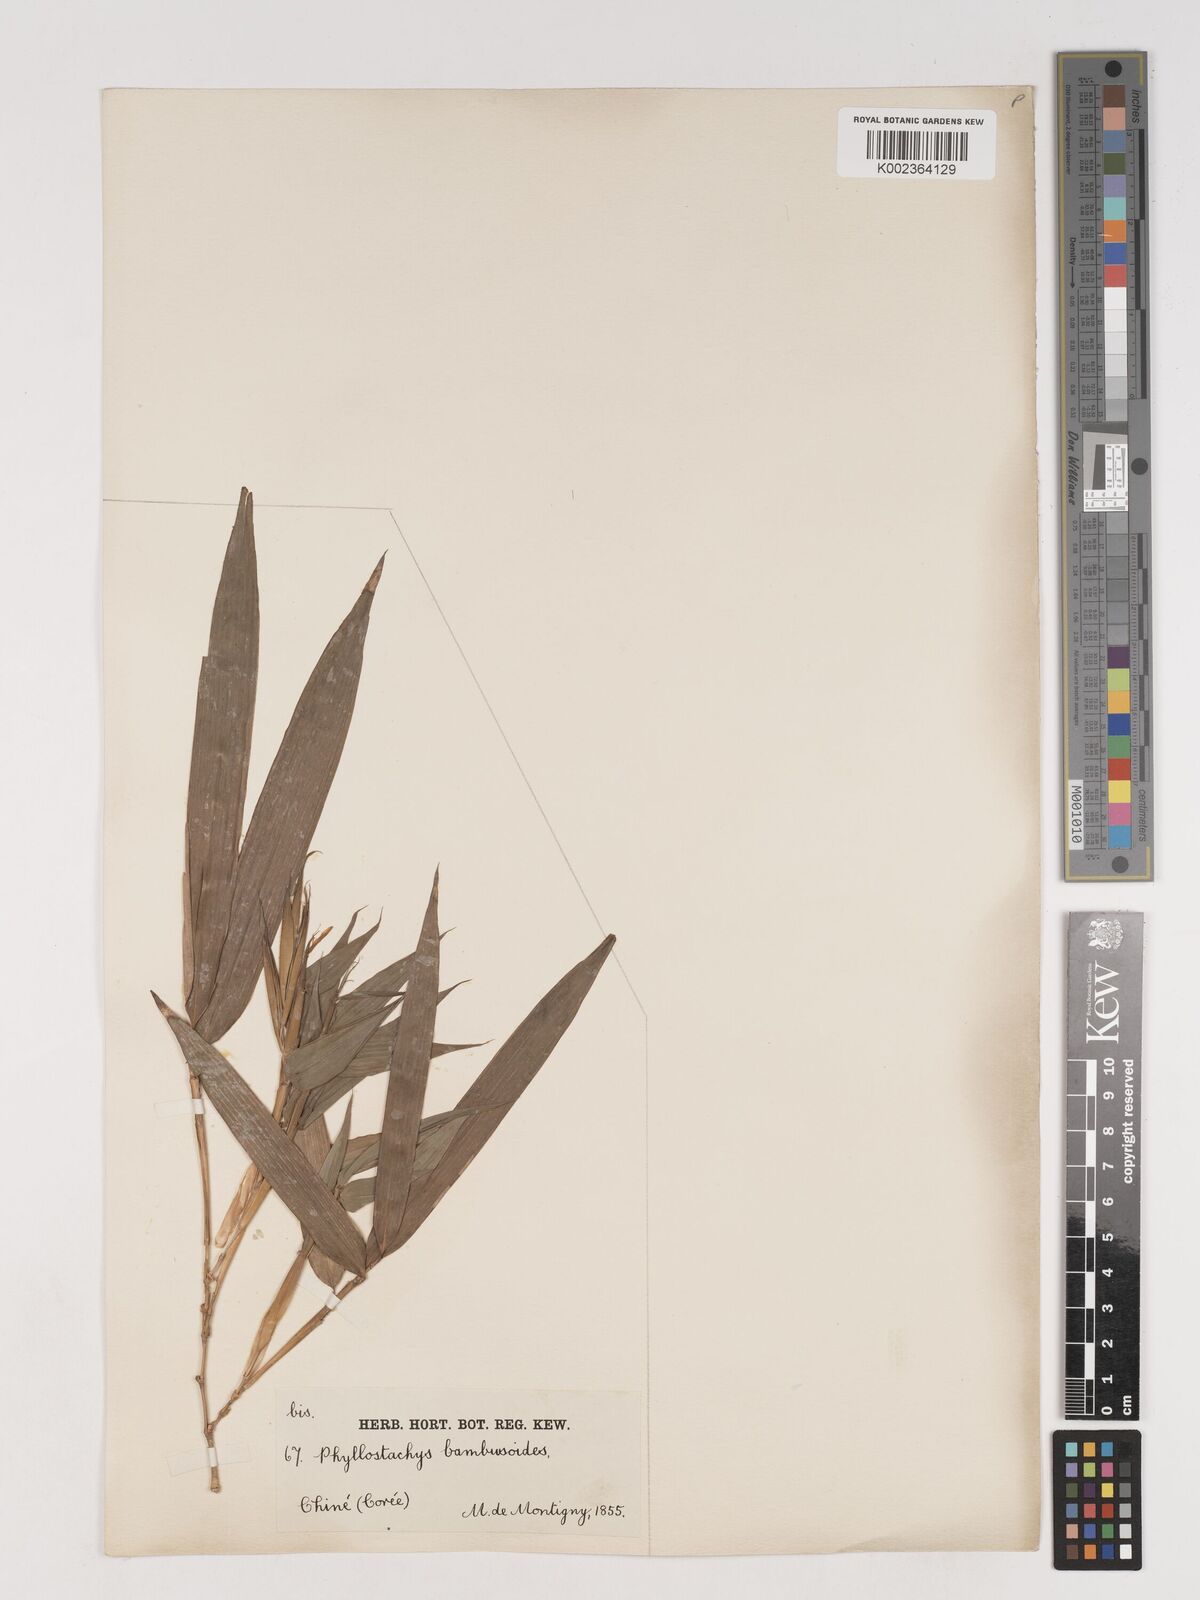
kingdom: Plantae
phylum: Tracheophyta
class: Liliopsida
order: Poales
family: Poaceae
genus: Phyllostachys
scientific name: Phyllostachys reticulata
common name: Bamboo
